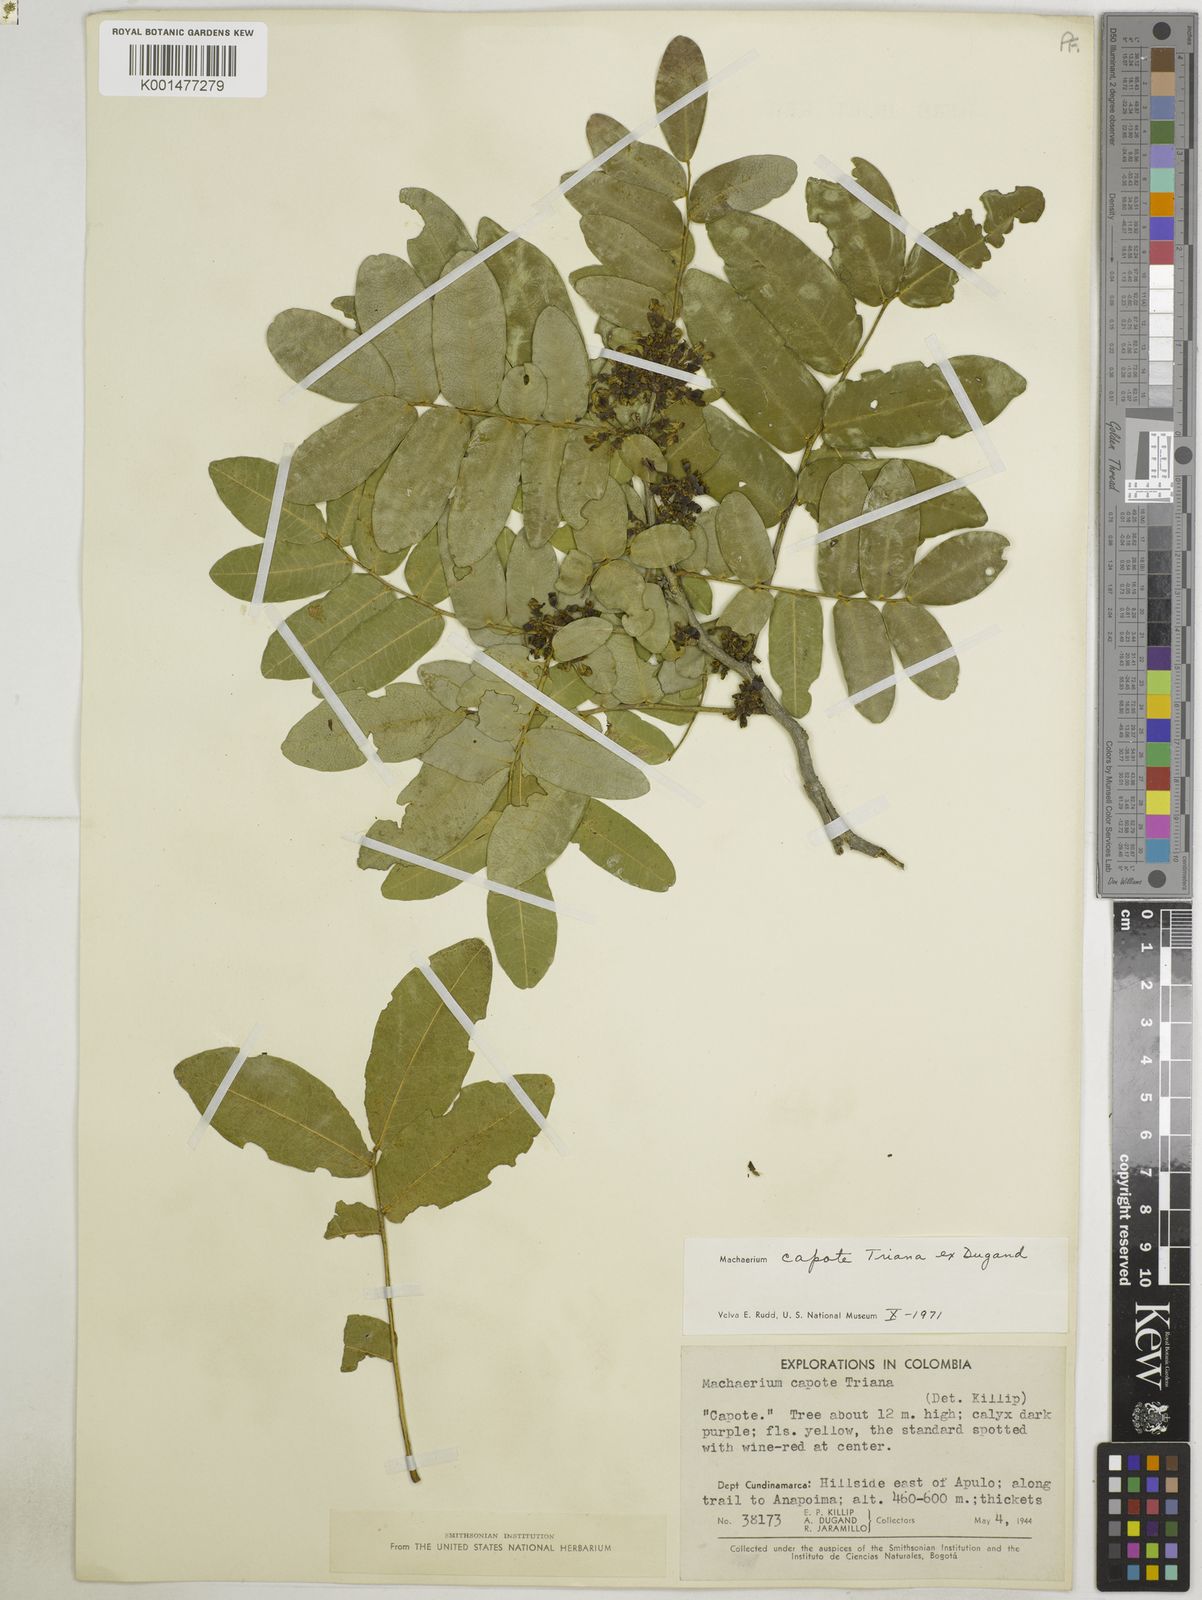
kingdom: Plantae
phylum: Tracheophyta
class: Magnoliopsida
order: Fabales
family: Fabaceae
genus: Machaerium
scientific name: Machaerium capote
